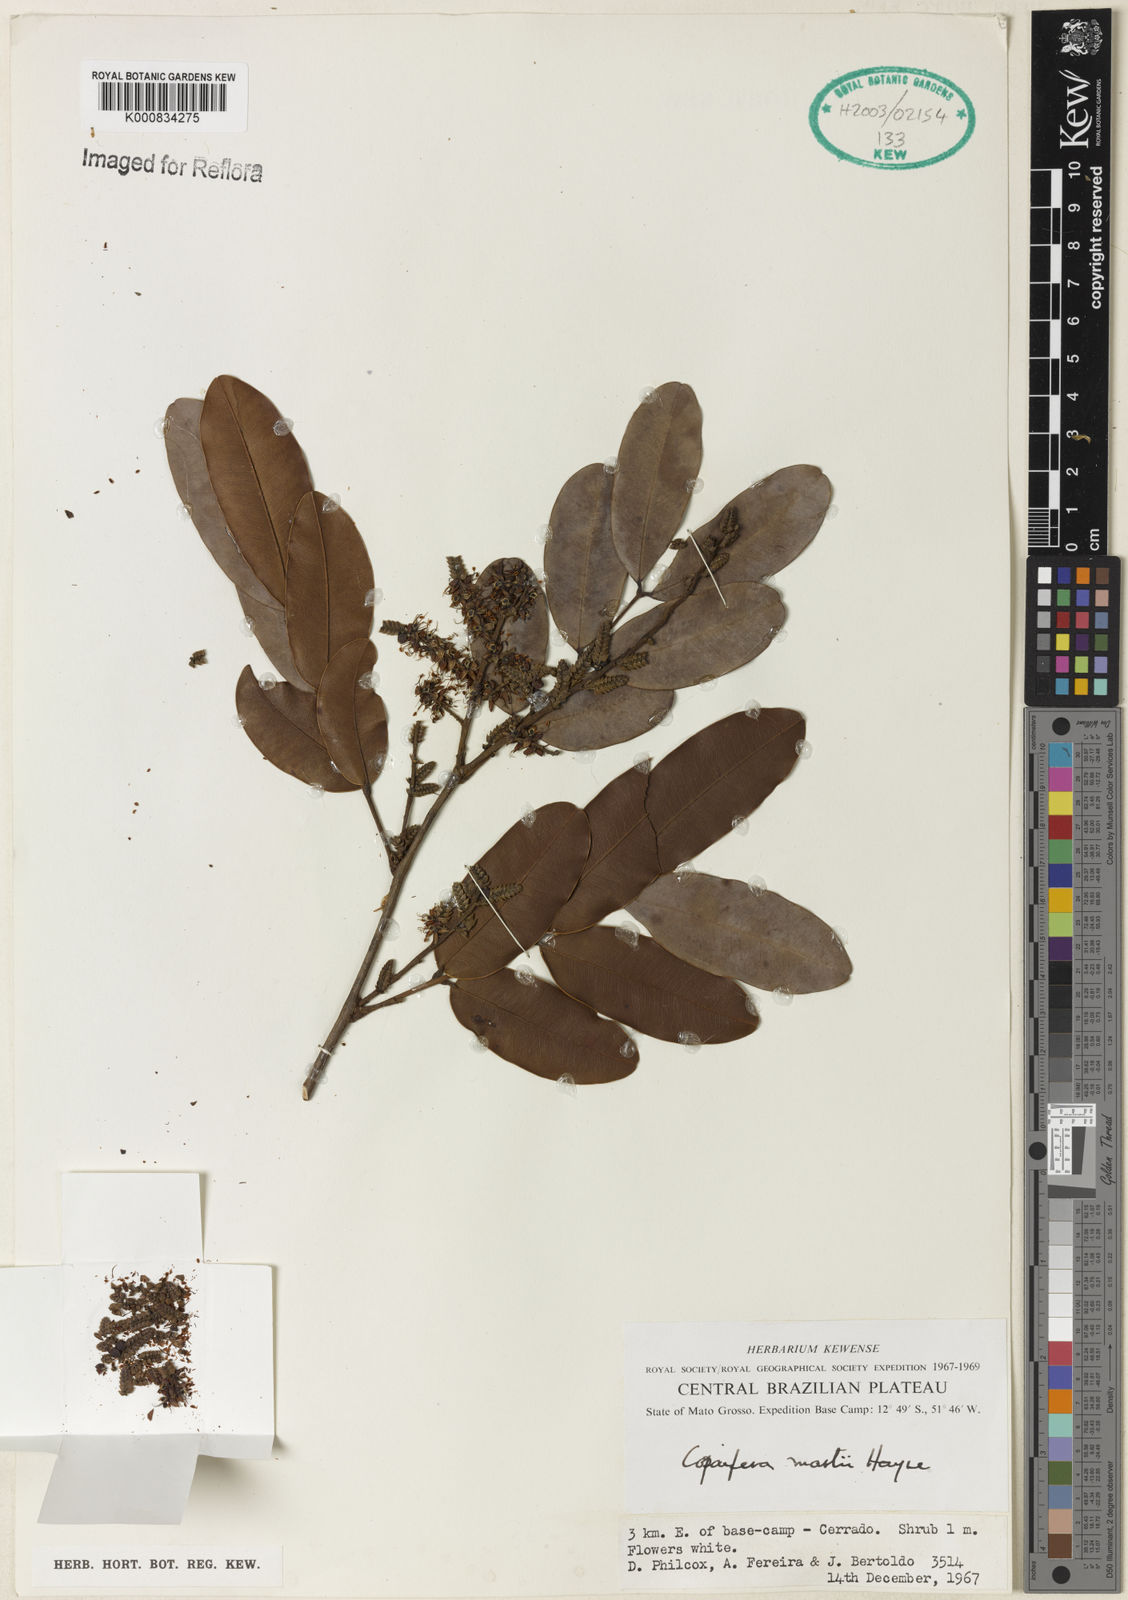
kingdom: Plantae
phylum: Tracheophyta
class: Magnoliopsida
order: Fabales
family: Fabaceae
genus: Copaifera
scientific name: Copaifera martii
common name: Copaiba
